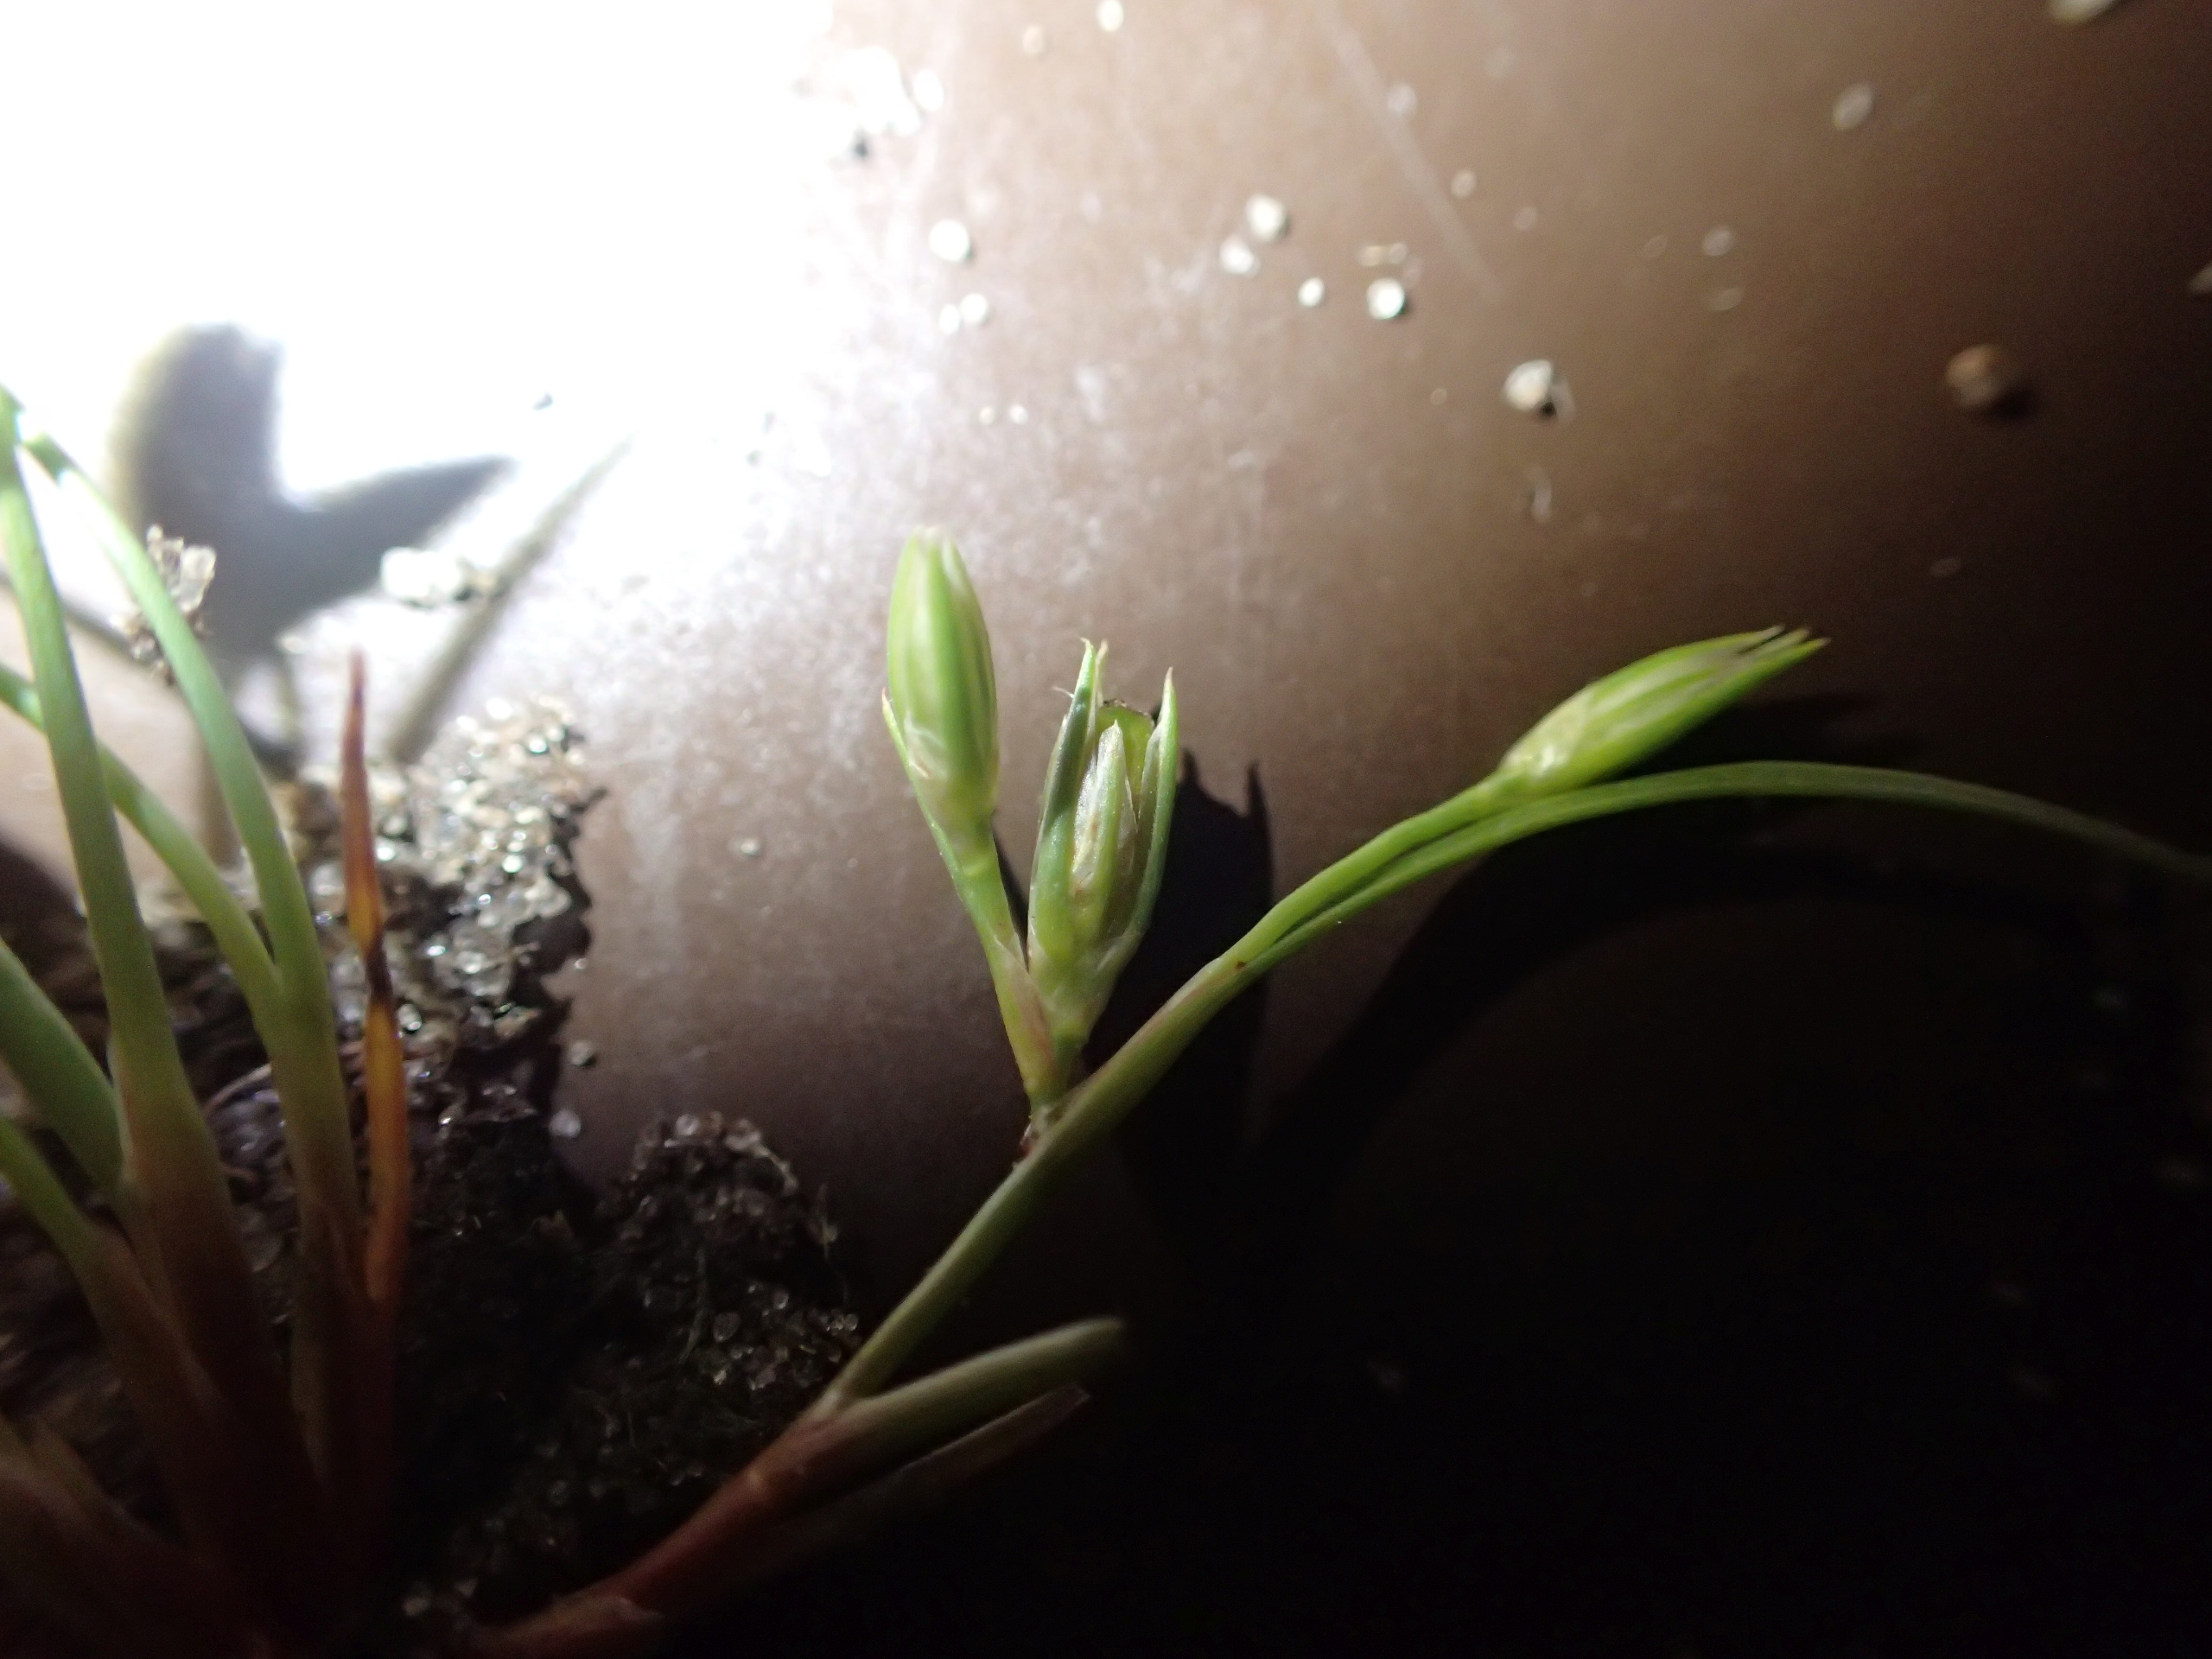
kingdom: Plantae
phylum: Tracheophyta
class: Liliopsida
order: Poales
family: Juncaceae
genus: Juncus
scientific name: Juncus ranarius
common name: Klæg-siv
